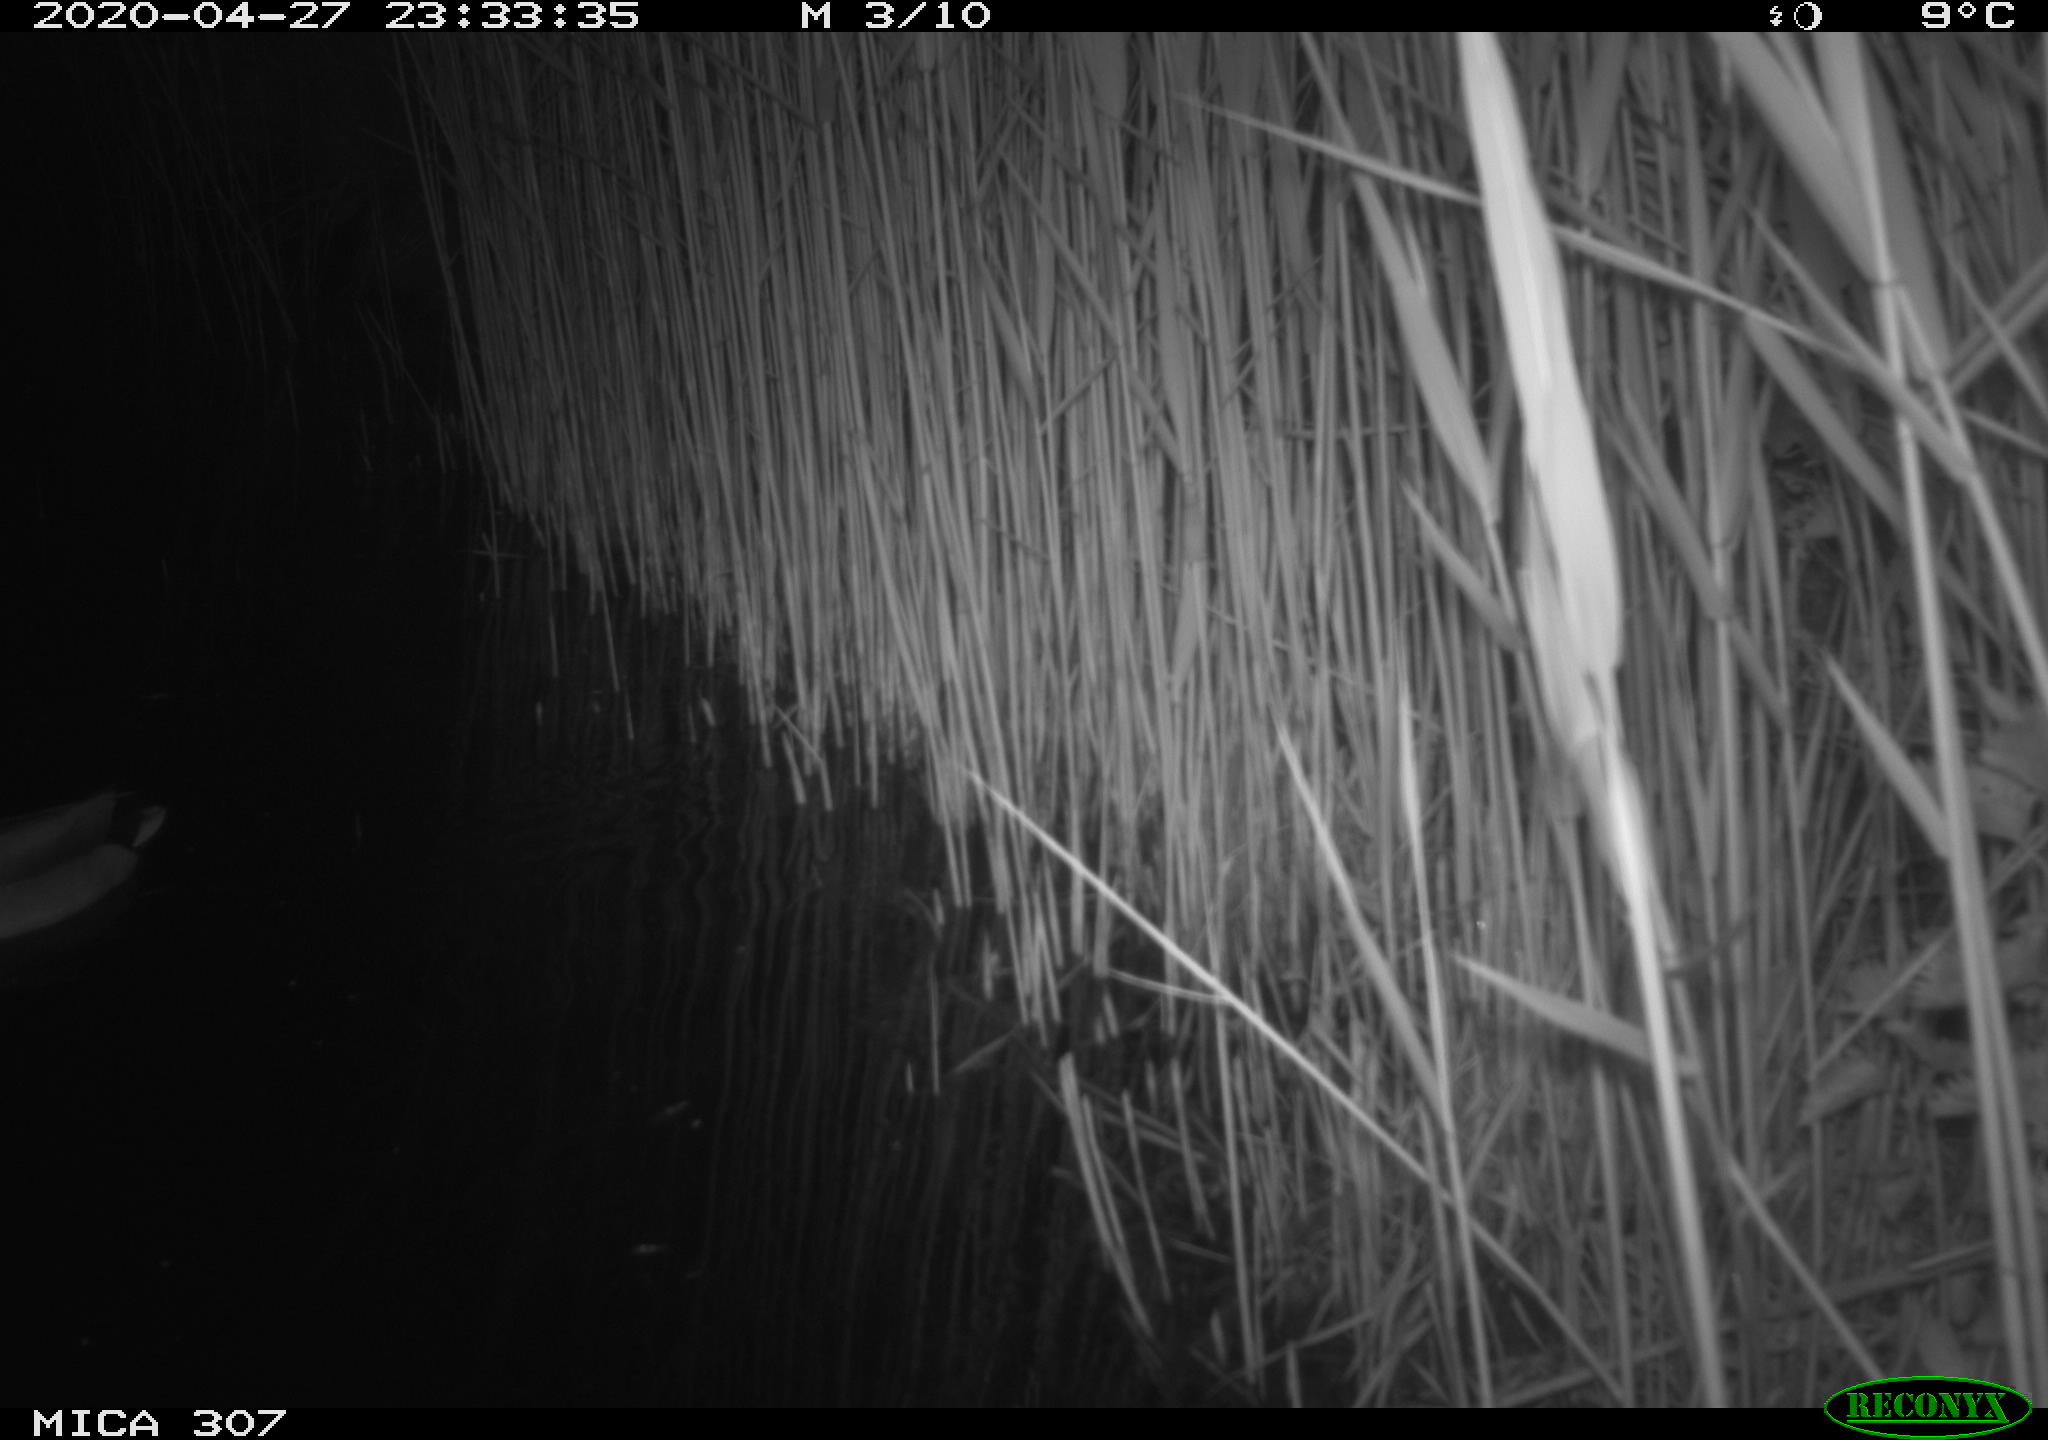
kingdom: Animalia
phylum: Chordata
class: Aves
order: Anseriformes
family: Anatidae
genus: Anas
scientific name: Anas platyrhynchos
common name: Mallard
